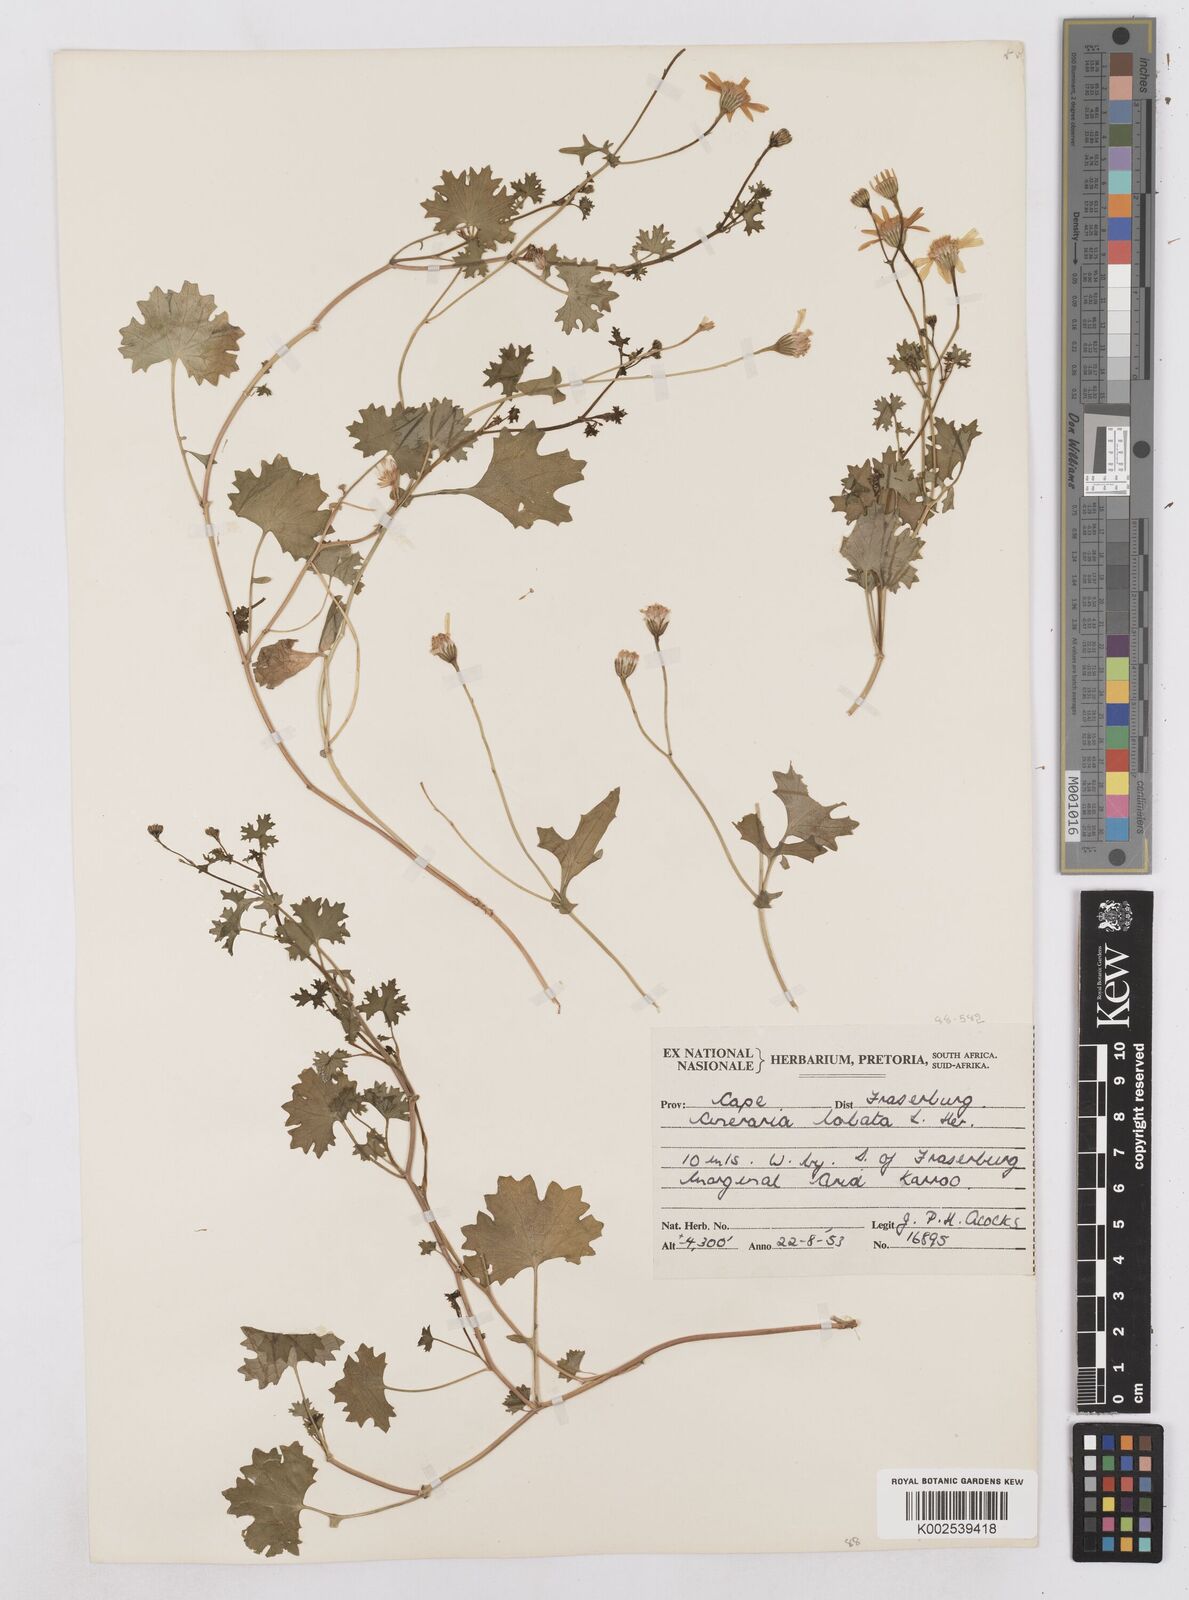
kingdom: Plantae
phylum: Tracheophyta
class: Magnoliopsida
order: Asterales
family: Asteraceae
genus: Cineraria
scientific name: Cineraria
